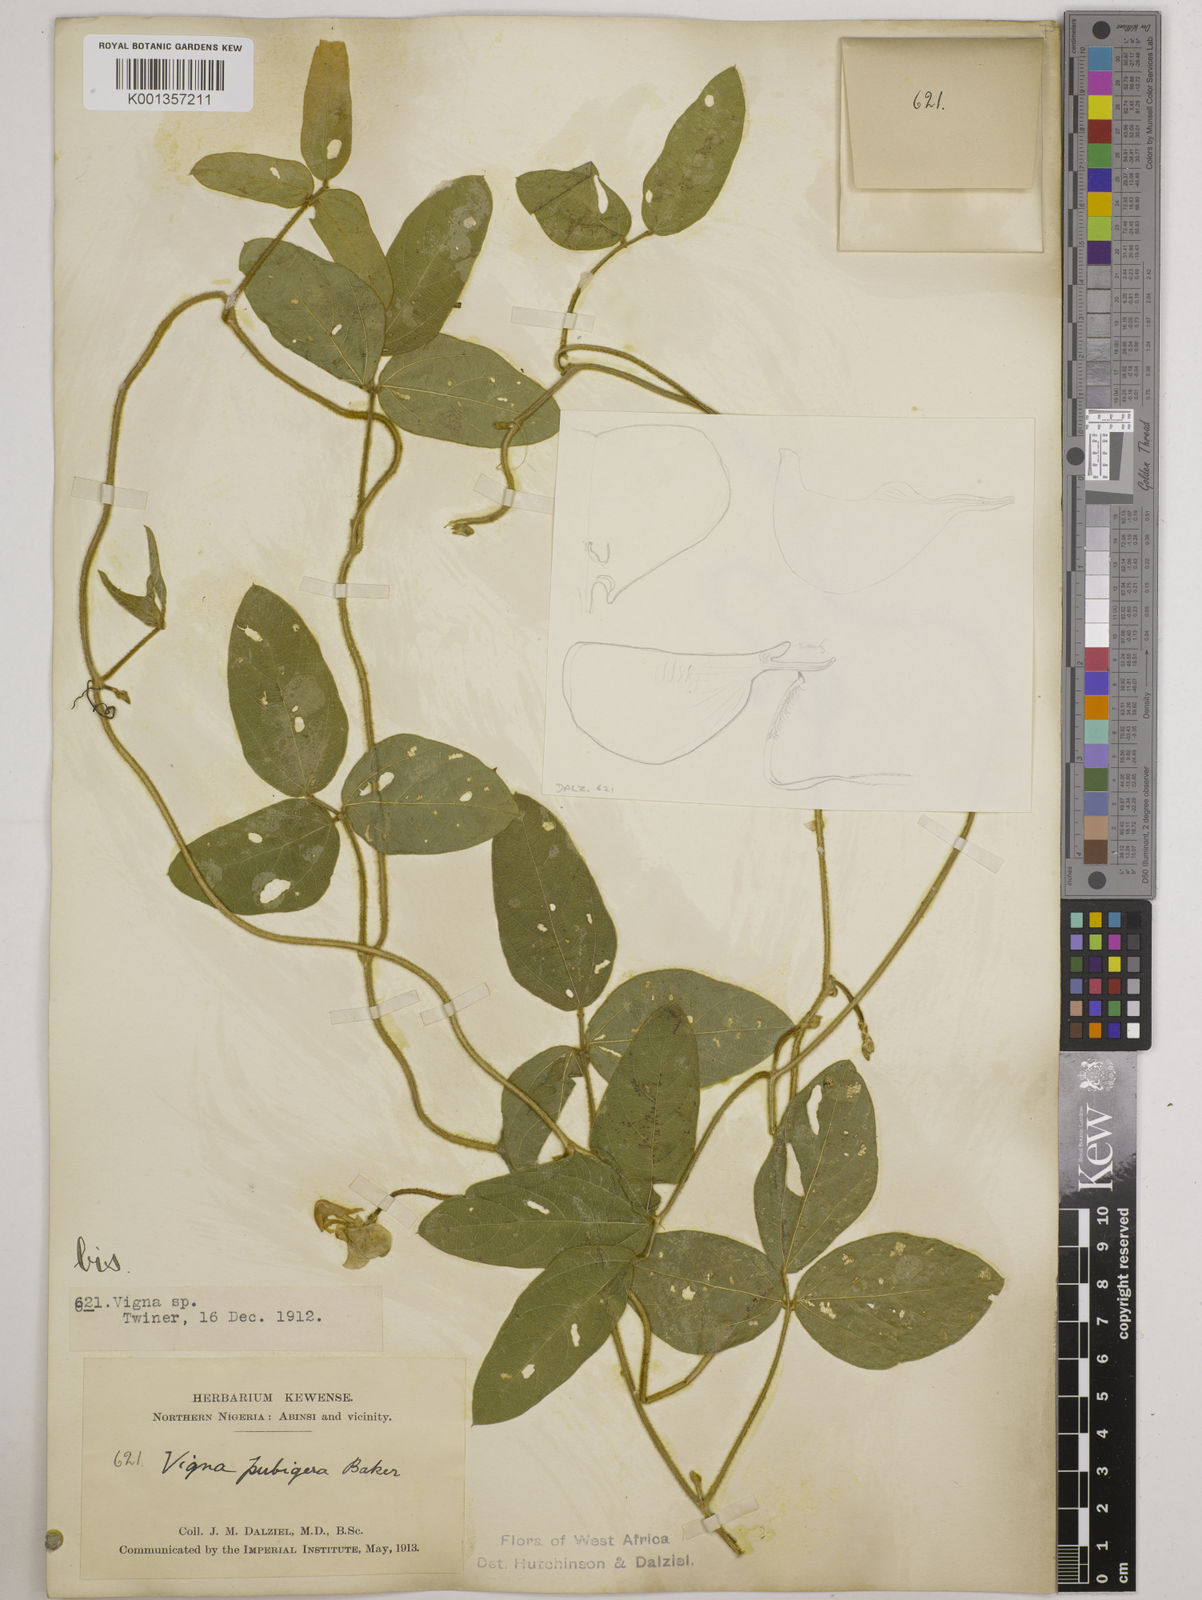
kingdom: Plantae
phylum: Tracheophyta
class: Magnoliopsida
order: Fabales
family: Fabaceae
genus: Vigna
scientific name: Vigna ambacensis
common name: Tsarkiyan zomo
